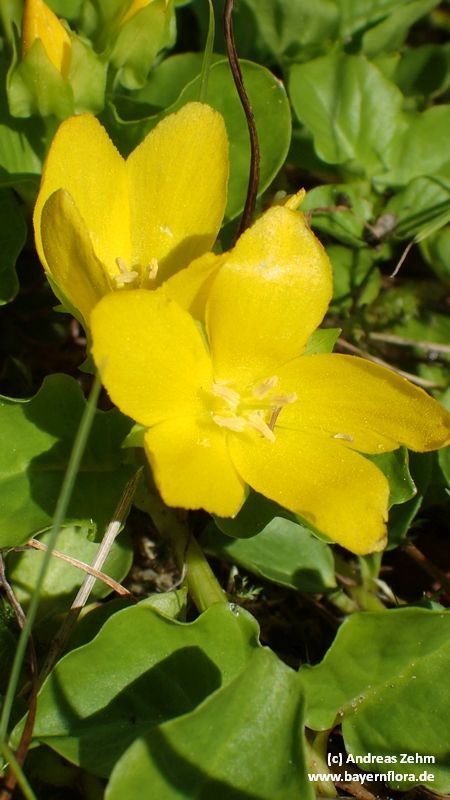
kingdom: Plantae
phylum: Tracheophyta
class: Magnoliopsida
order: Ericales
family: Primulaceae
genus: Lysimachia
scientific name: Lysimachia nummularia
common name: Moneywort
